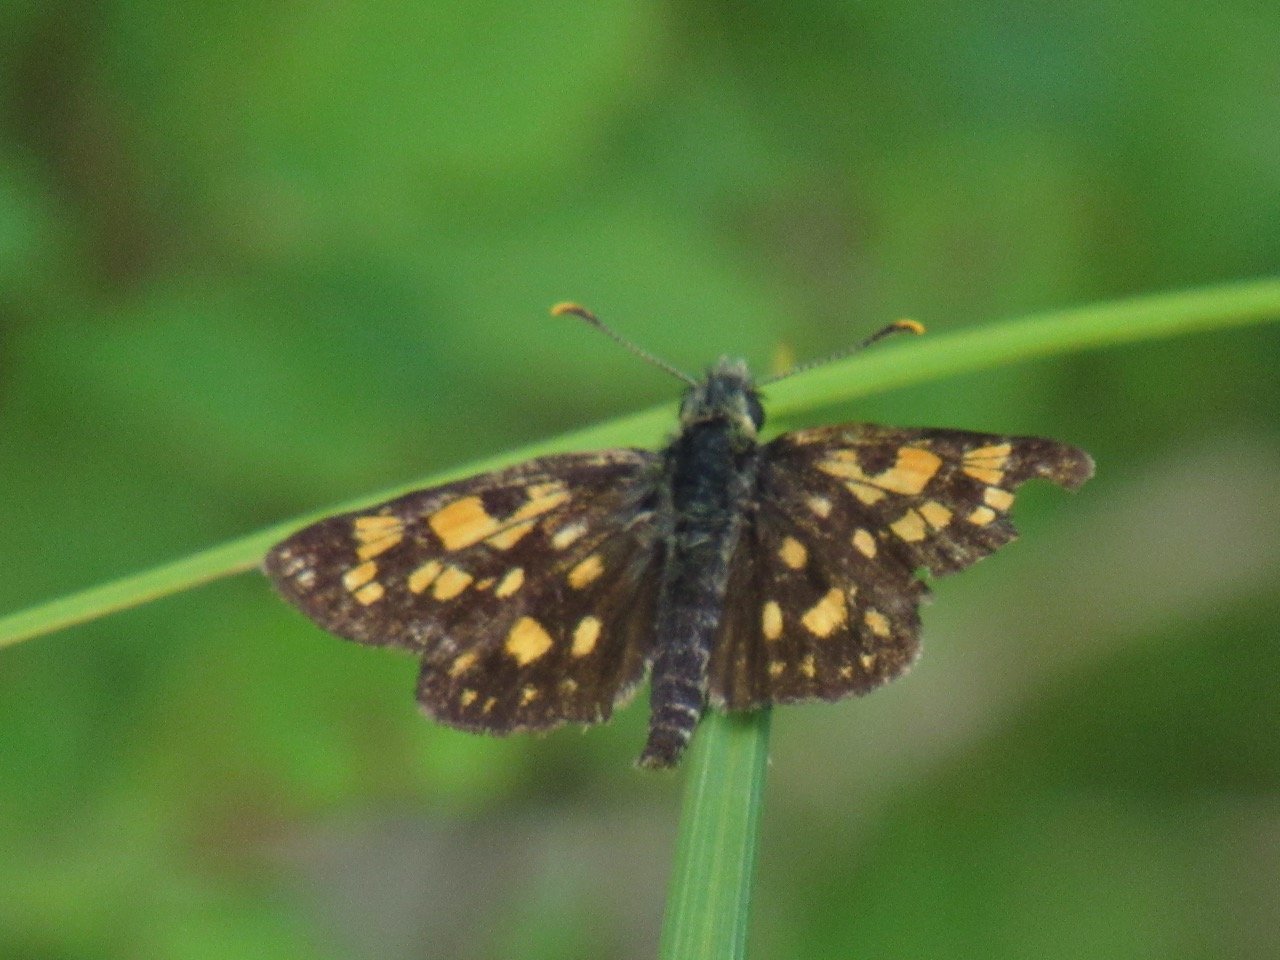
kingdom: Animalia
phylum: Arthropoda
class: Insecta
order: Lepidoptera
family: Hesperiidae
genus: Carterocephalus
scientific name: Carterocephalus palaemon
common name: Chequered Skipper
